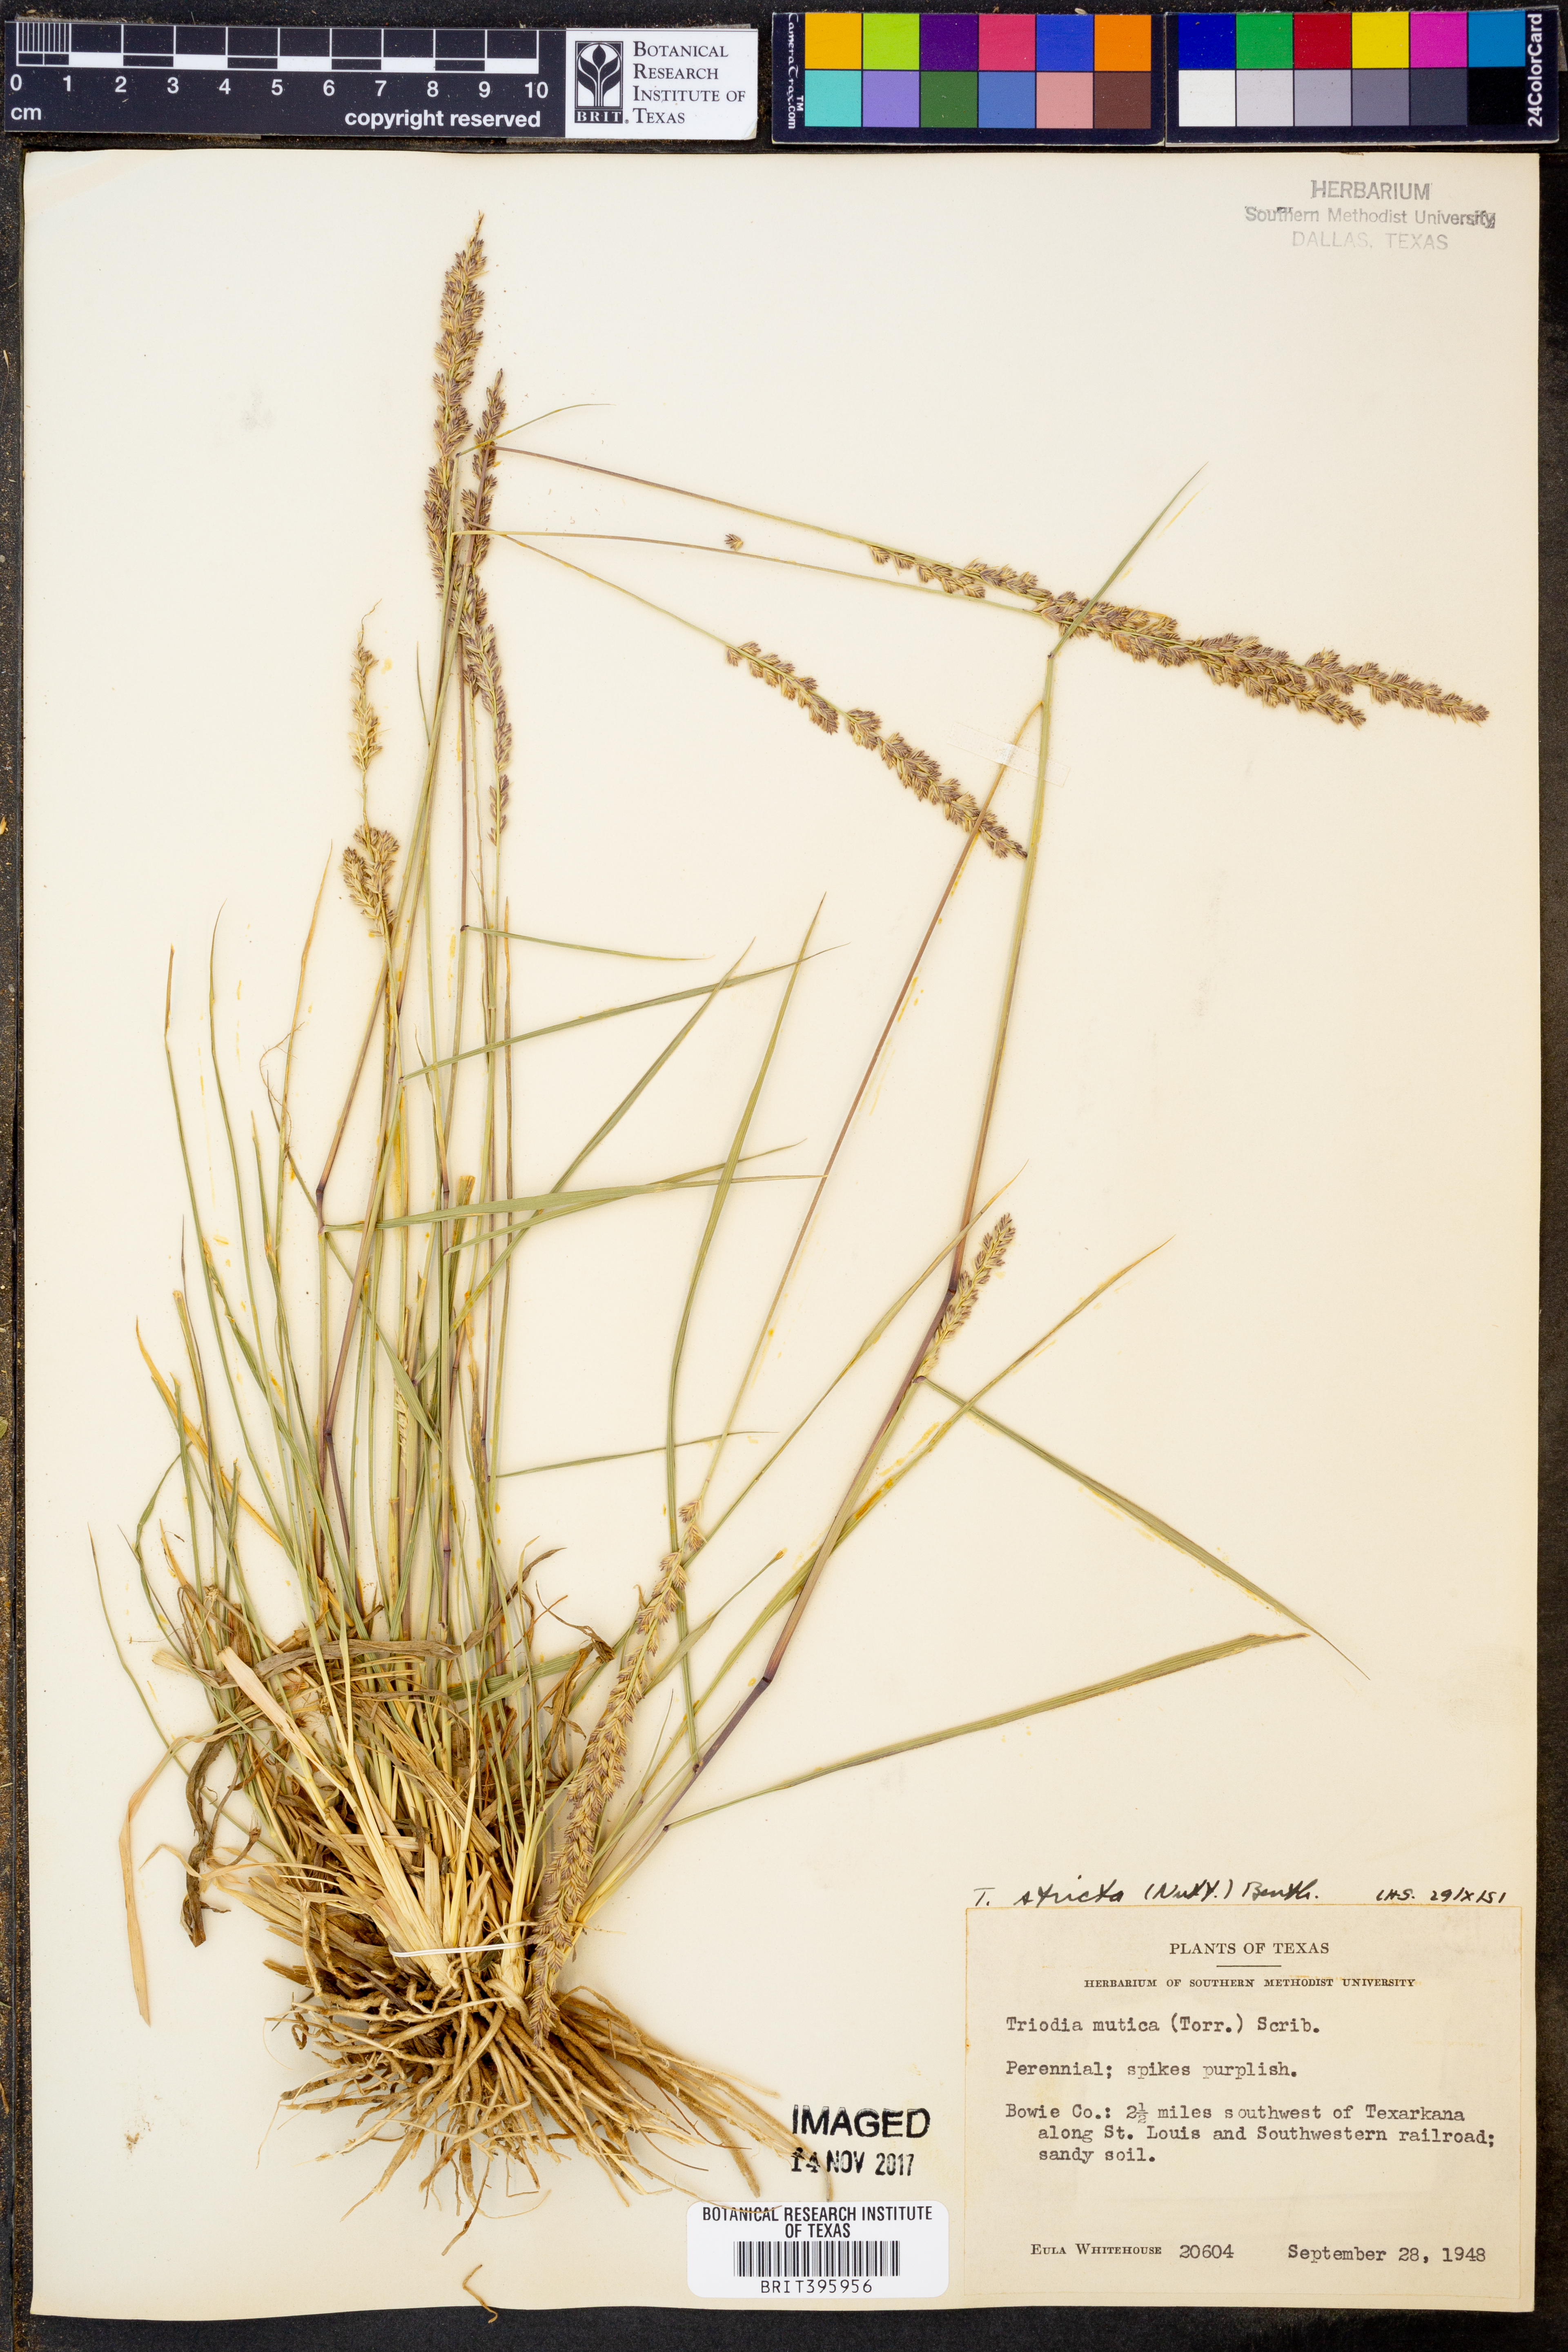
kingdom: Plantae
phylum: Tracheophyta
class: Liliopsida
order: Poales
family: Poaceae
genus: Tridens
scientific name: Tridens strictus
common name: Long-spike tridens
